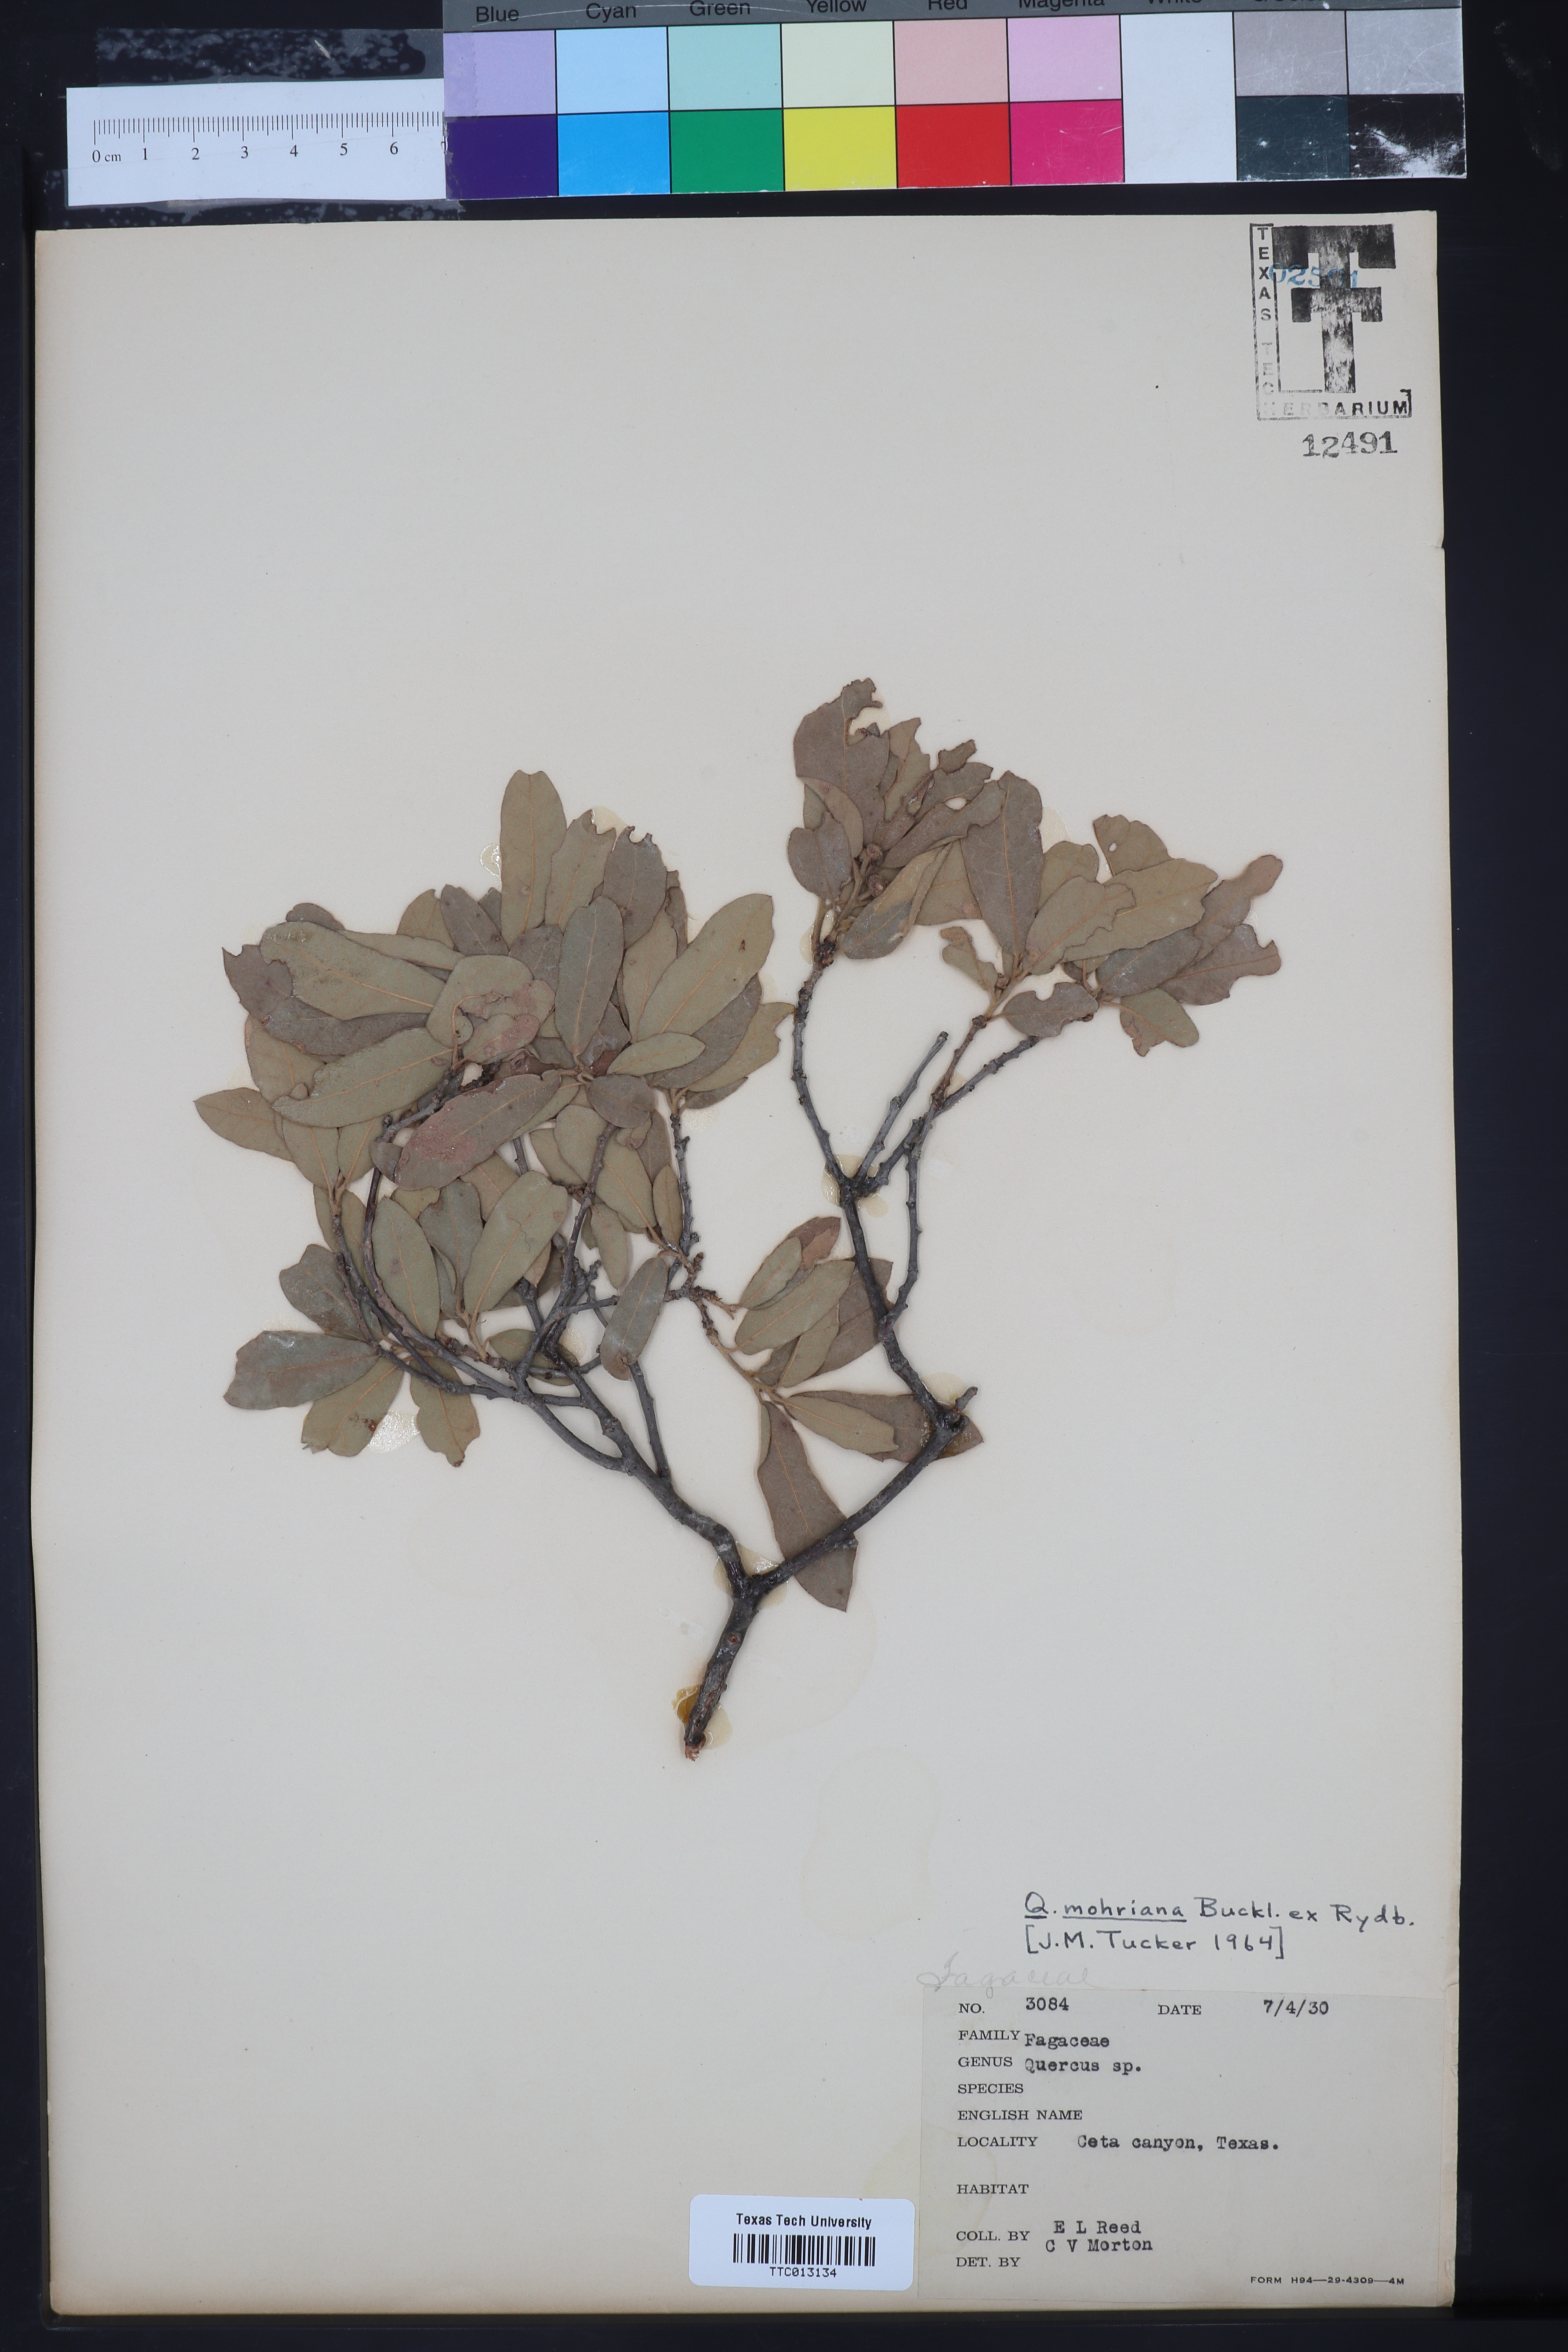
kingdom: Plantae
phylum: Tracheophyta
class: Magnoliopsida
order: Fagales
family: Fagaceae
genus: Quercus
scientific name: Quercus mohriana
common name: Mohr oak
